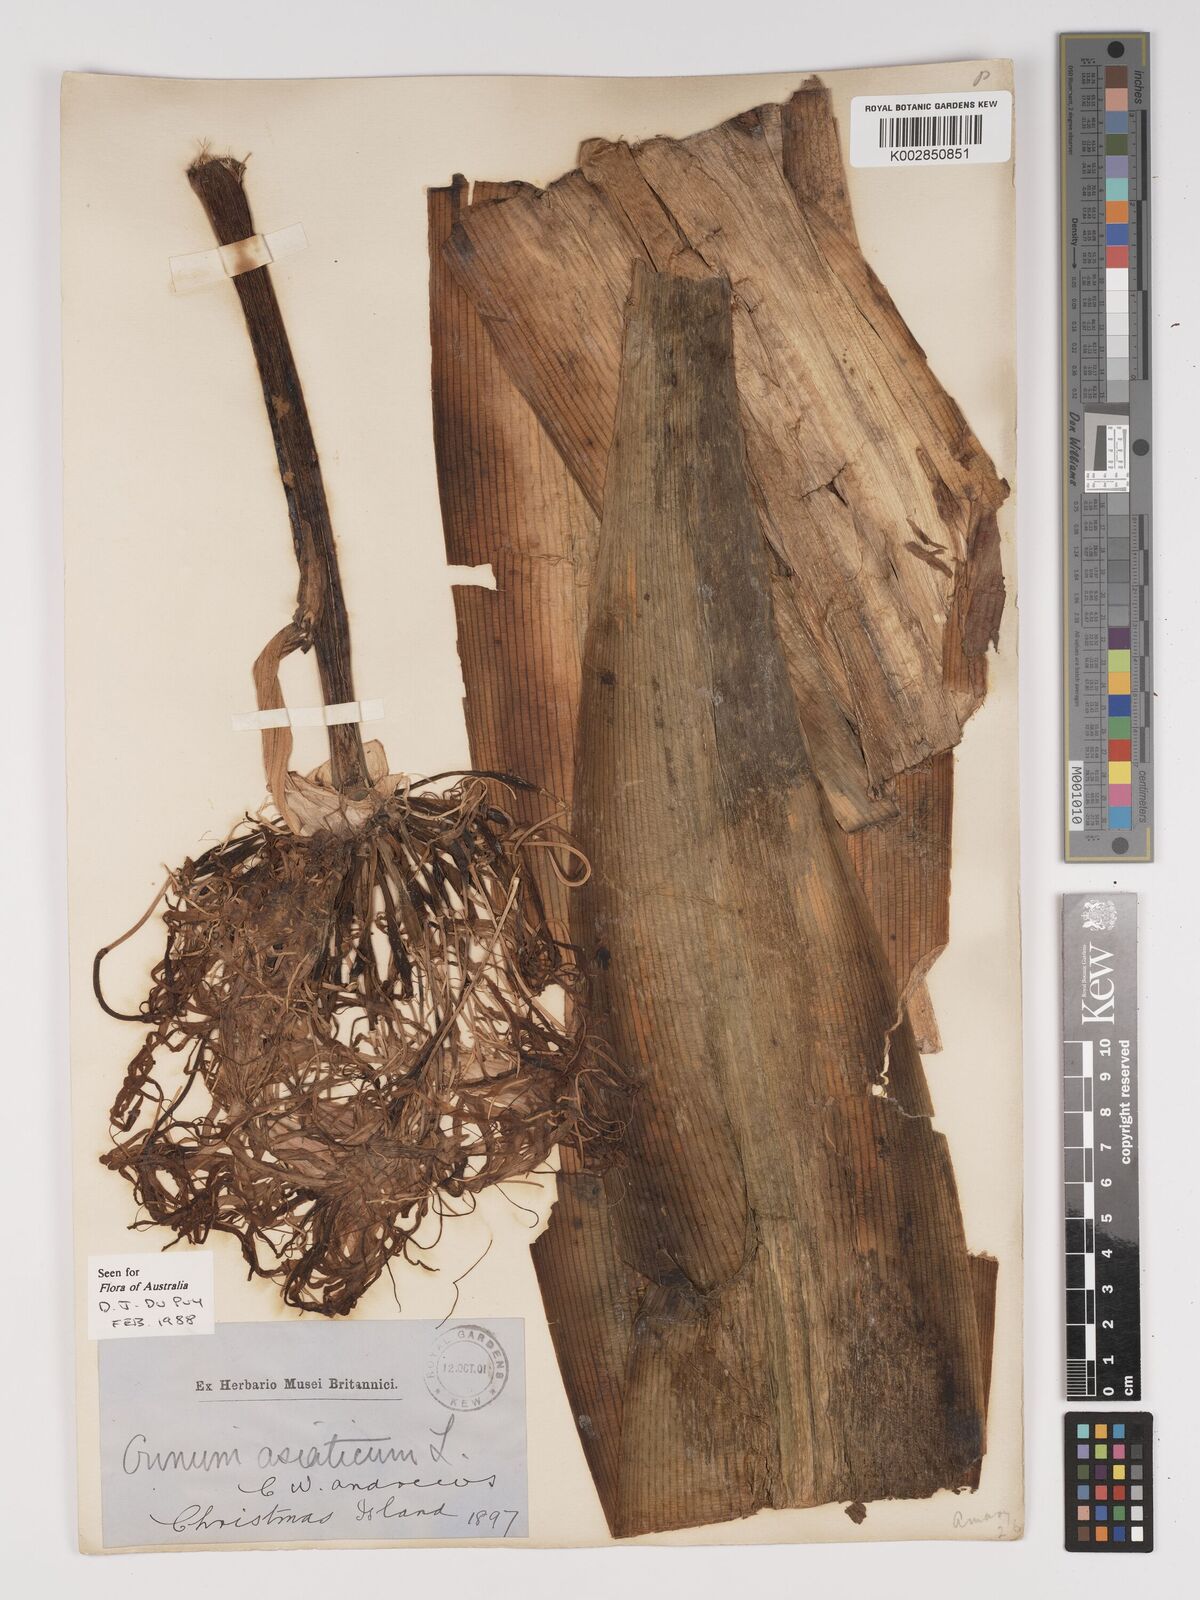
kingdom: Plantae
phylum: Tracheophyta
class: Liliopsida
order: Asparagales
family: Amaryllidaceae
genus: Crinum
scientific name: Crinum asiaticum
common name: Poisonbulb
